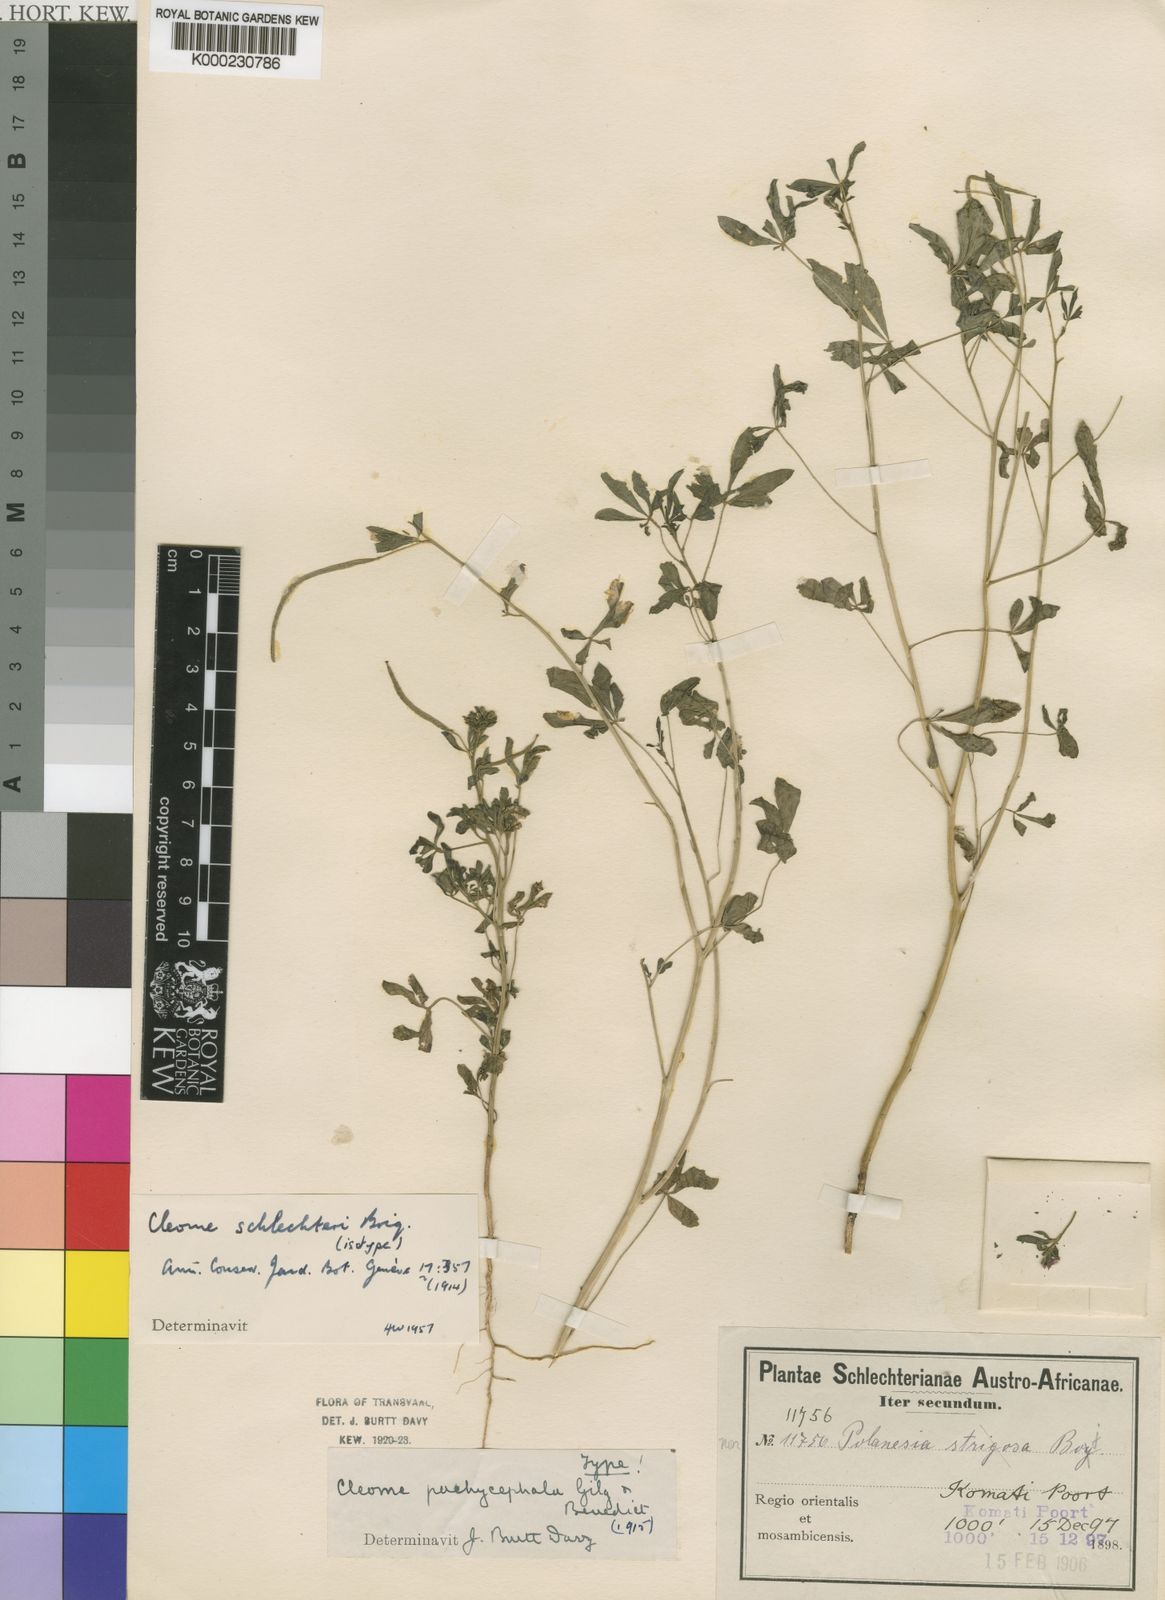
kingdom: Plantae
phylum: Tracheophyta
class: Magnoliopsida
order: Brassicales
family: Cleomaceae
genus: Sieruela
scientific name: Sieruela schlechteri
